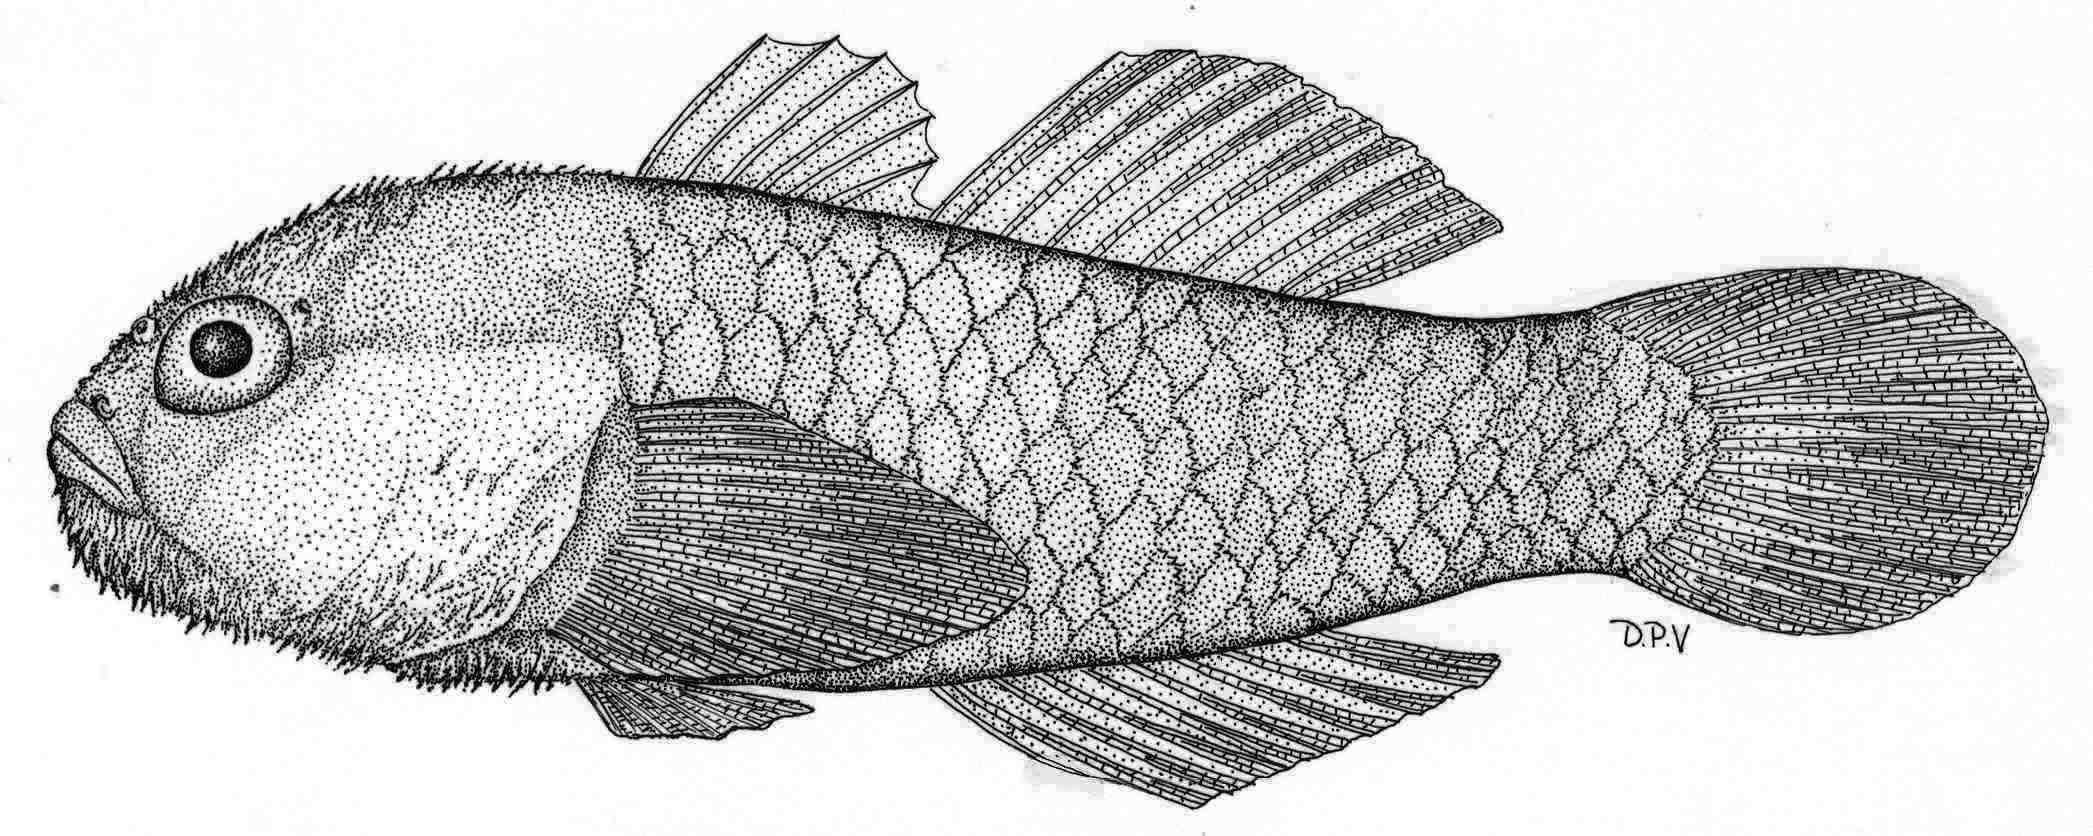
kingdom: Animalia
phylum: Chordata
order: Perciformes
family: Gobiidae
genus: Paragobiodon
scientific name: Paragobiodon xanthosoma
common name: Yellowskin goby
